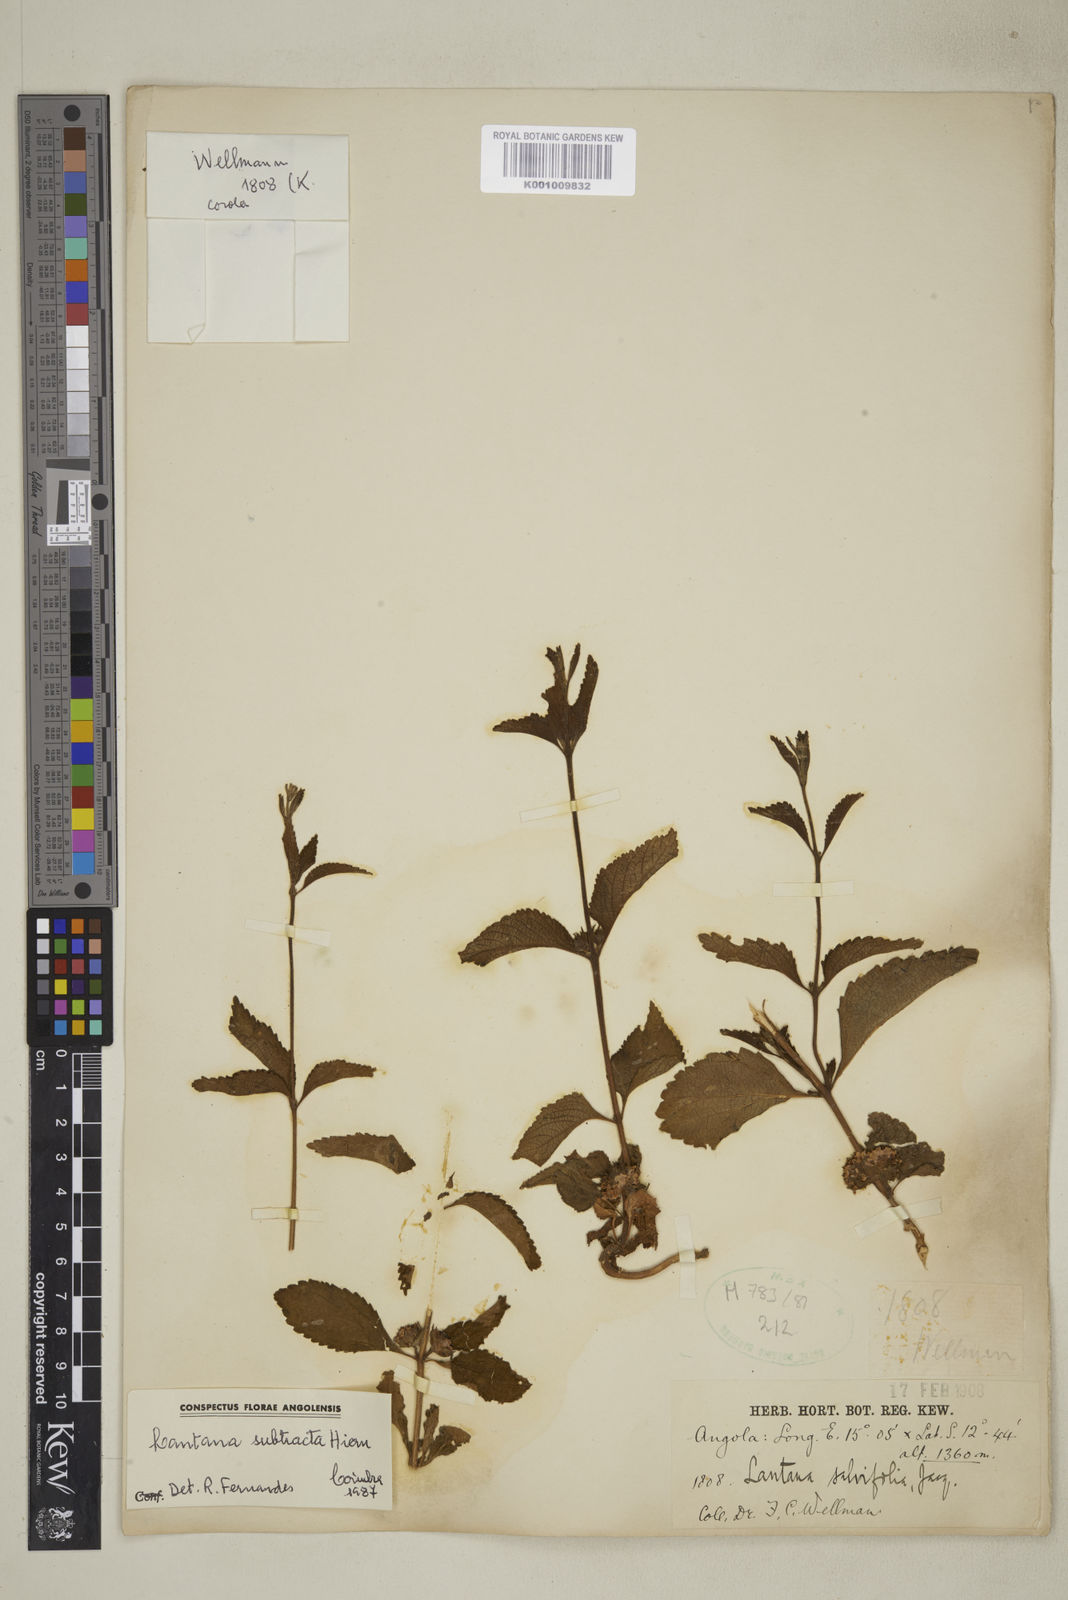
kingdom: Plantae
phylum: Tracheophyta
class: Magnoliopsida
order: Lamiales
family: Verbenaceae
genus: Lantana
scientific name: Lantana subtracta
